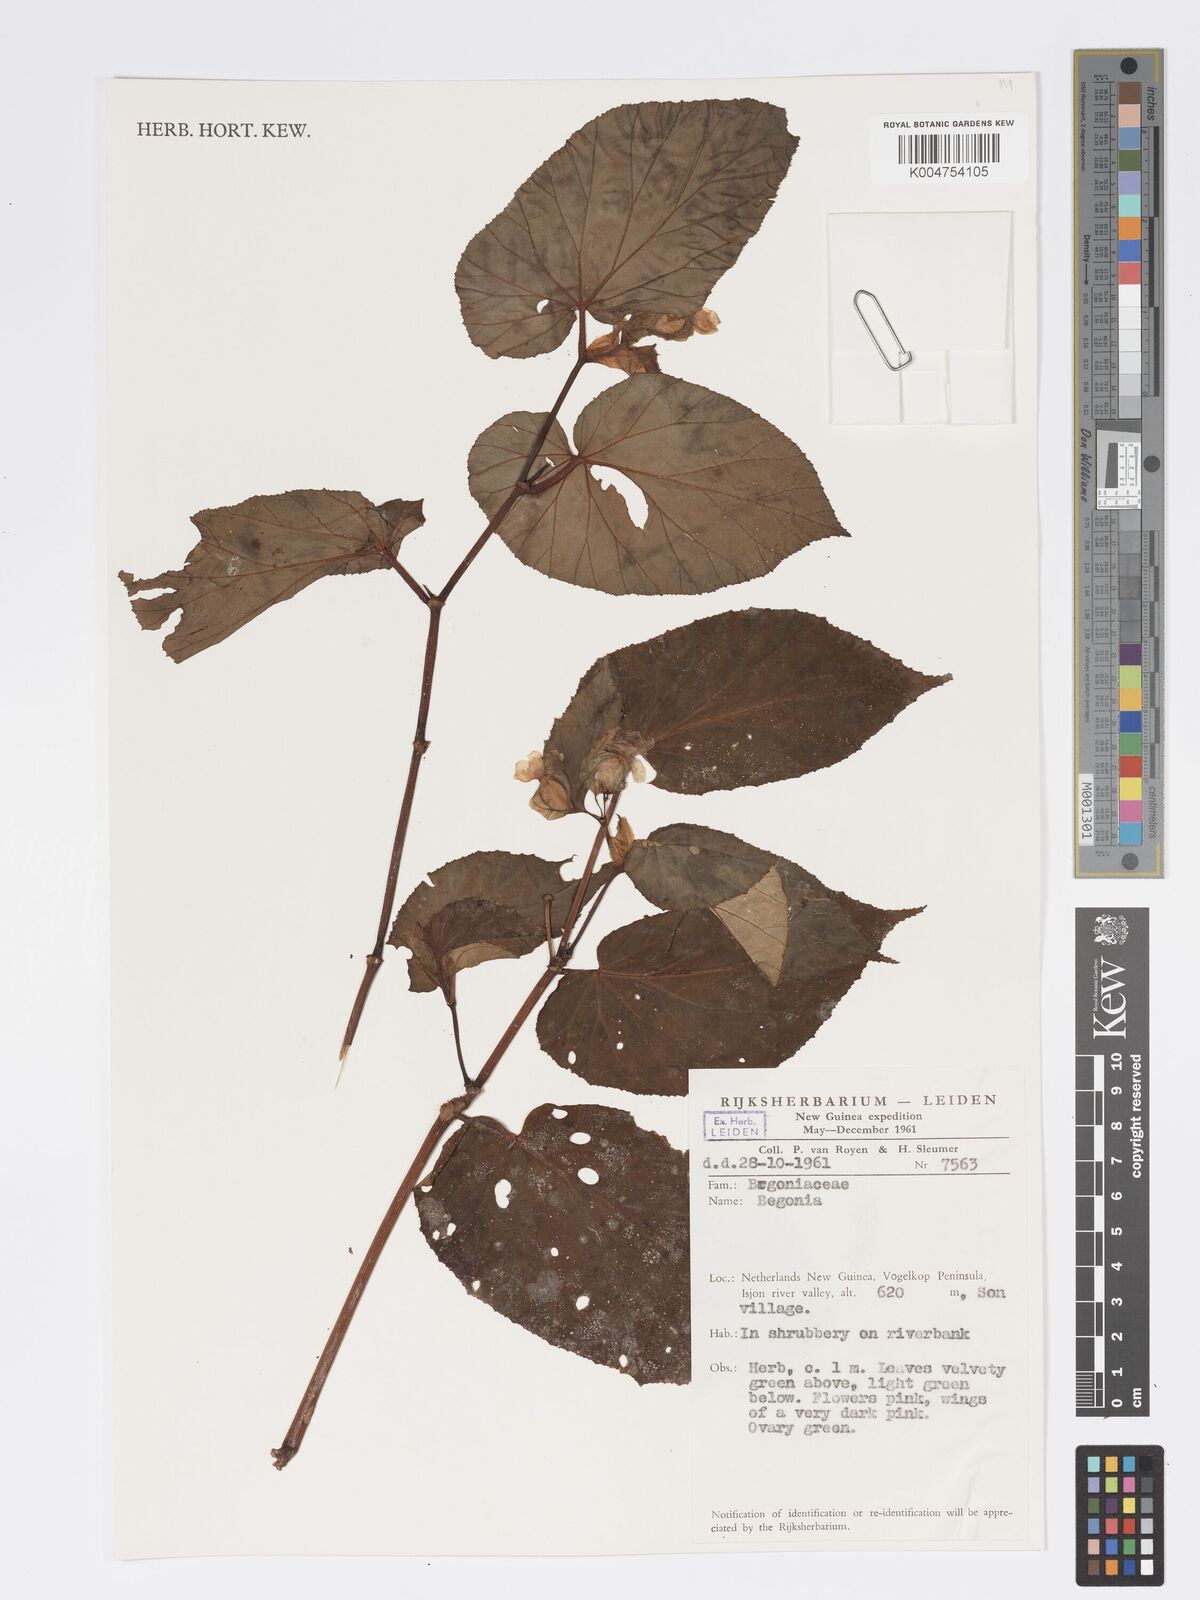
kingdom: Plantae
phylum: Tracheophyta
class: Magnoliopsida
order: Cucurbitales
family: Begoniaceae
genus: Begonia
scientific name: Begonia
